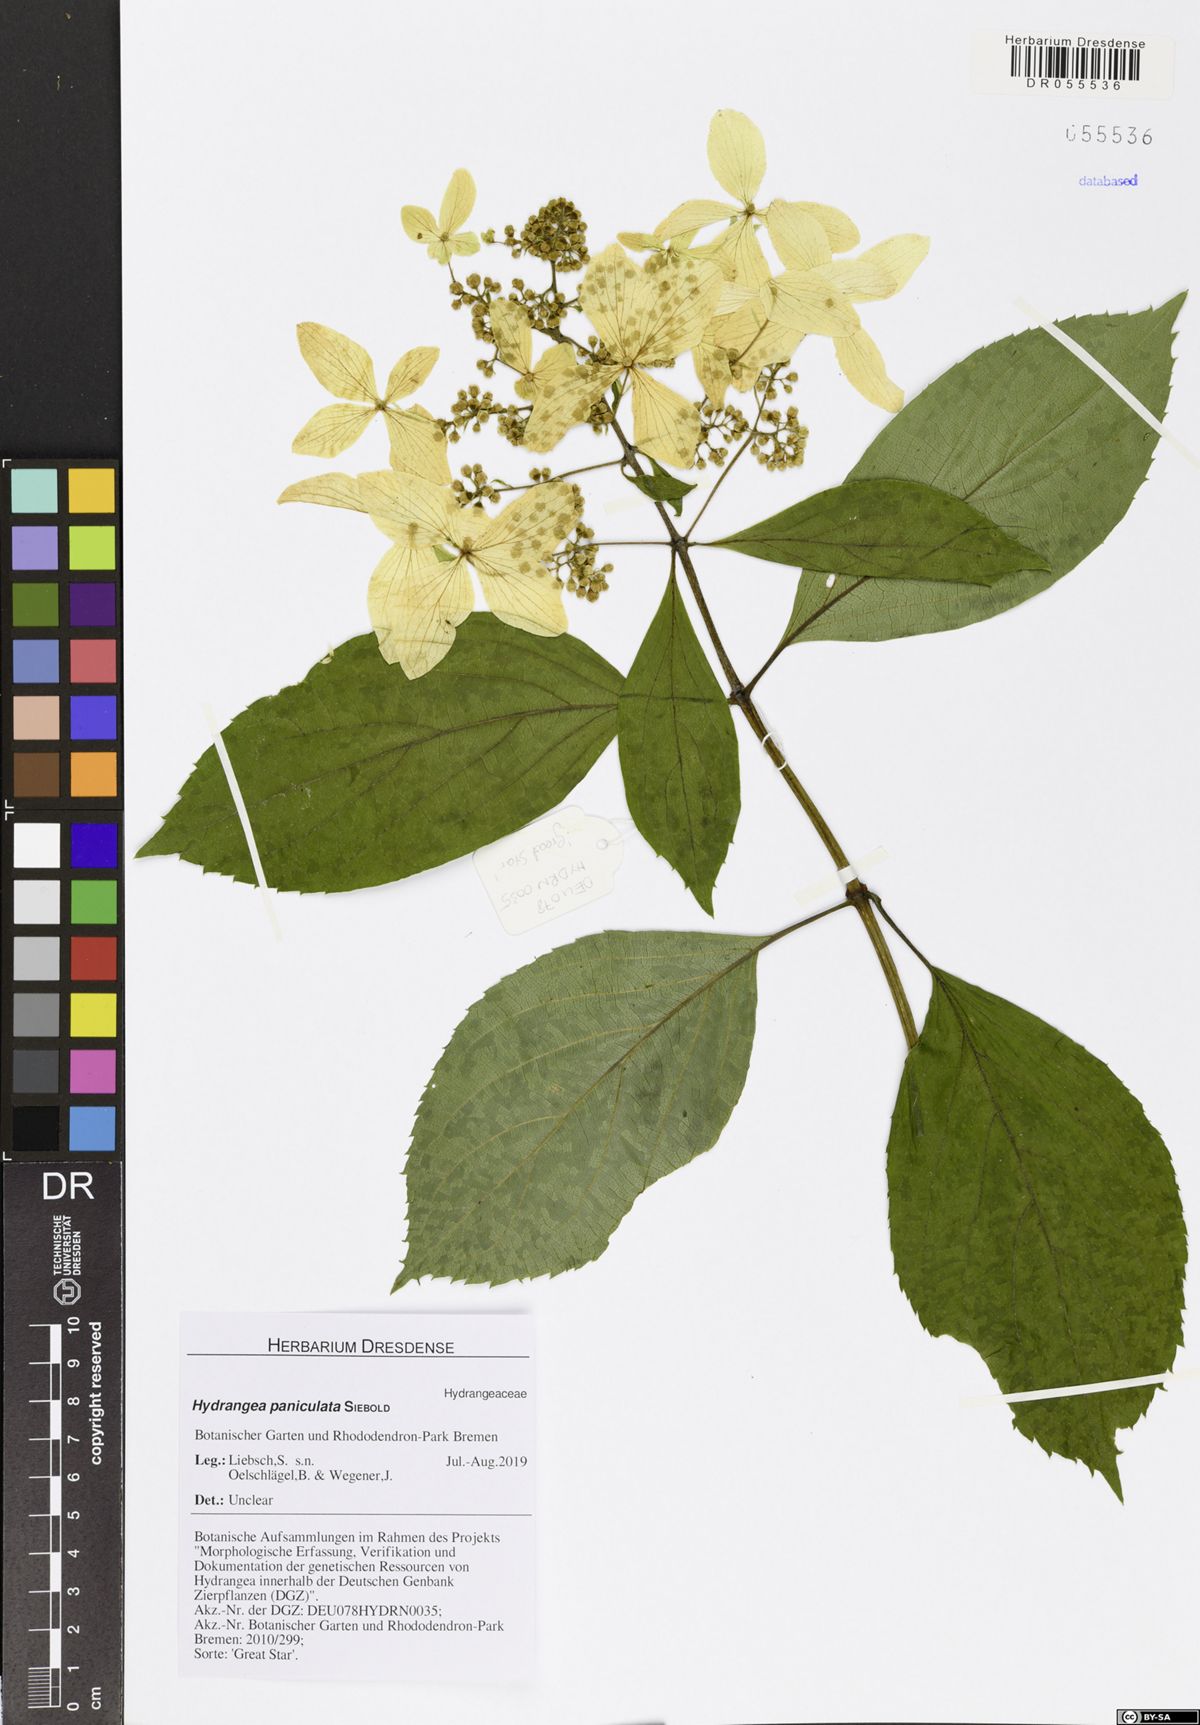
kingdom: Plantae
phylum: Tracheophyta
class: Magnoliopsida
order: Cornales
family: Hydrangeaceae
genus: Hydrangea
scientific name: Hydrangea paniculata
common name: Panicled hydrangea
